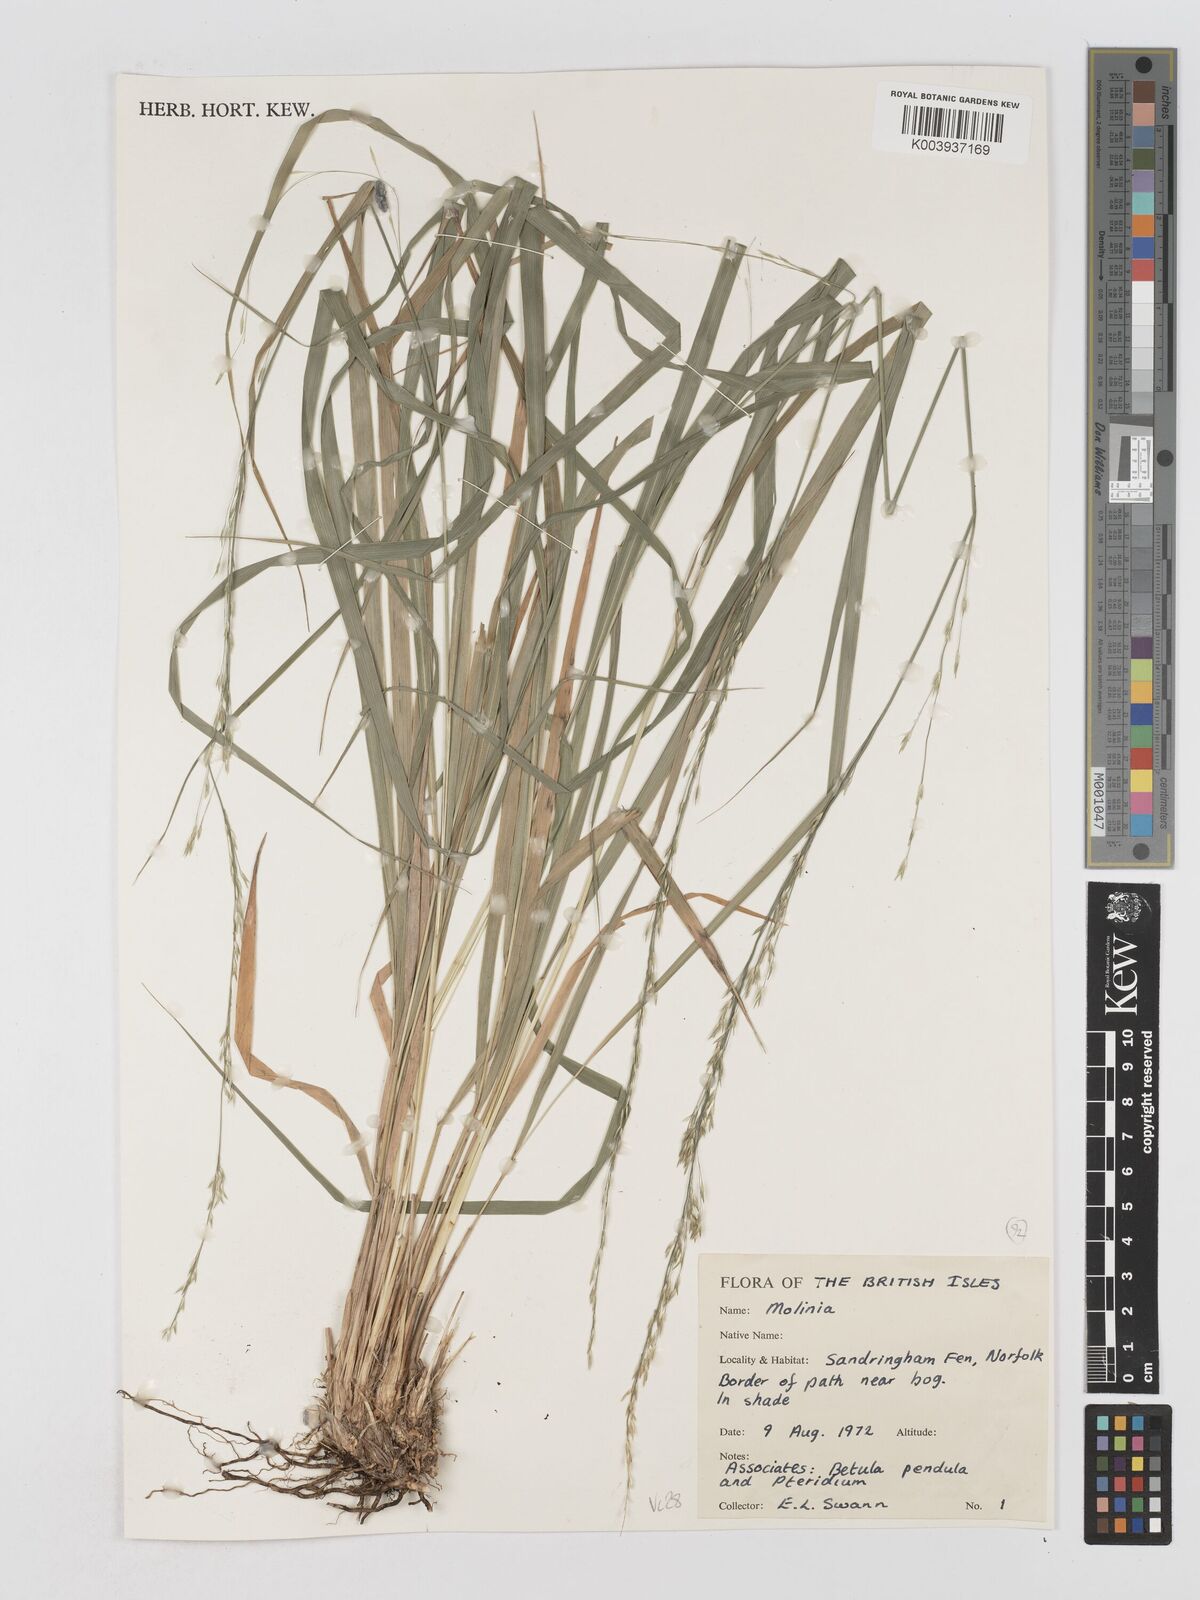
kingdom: Plantae
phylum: Tracheophyta
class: Liliopsida
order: Poales
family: Poaceae
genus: Molinia
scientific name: Molinia caerulea
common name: Purple moor-grass
